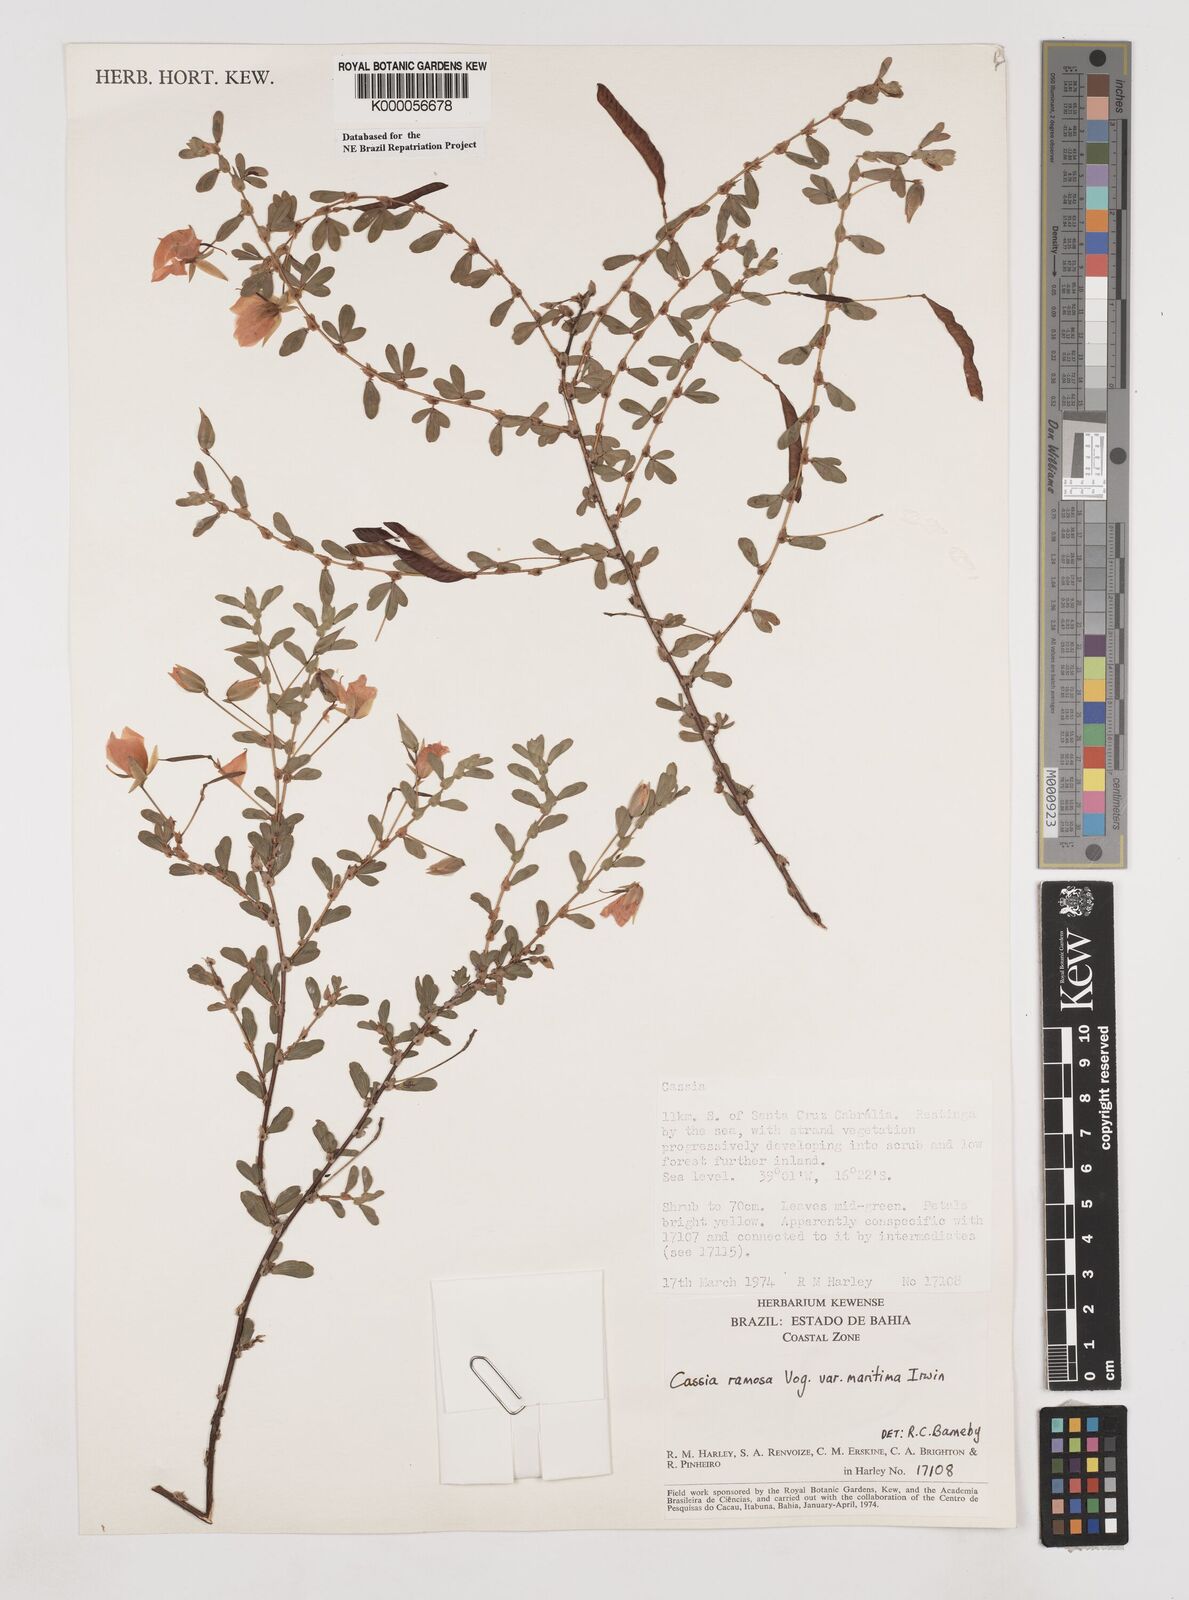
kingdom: Plantae
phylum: Tracheophyta
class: Magnoliopsida
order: Fabales
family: Fabaceae
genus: Chamaecrista
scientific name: Chamaecrista ramosa
